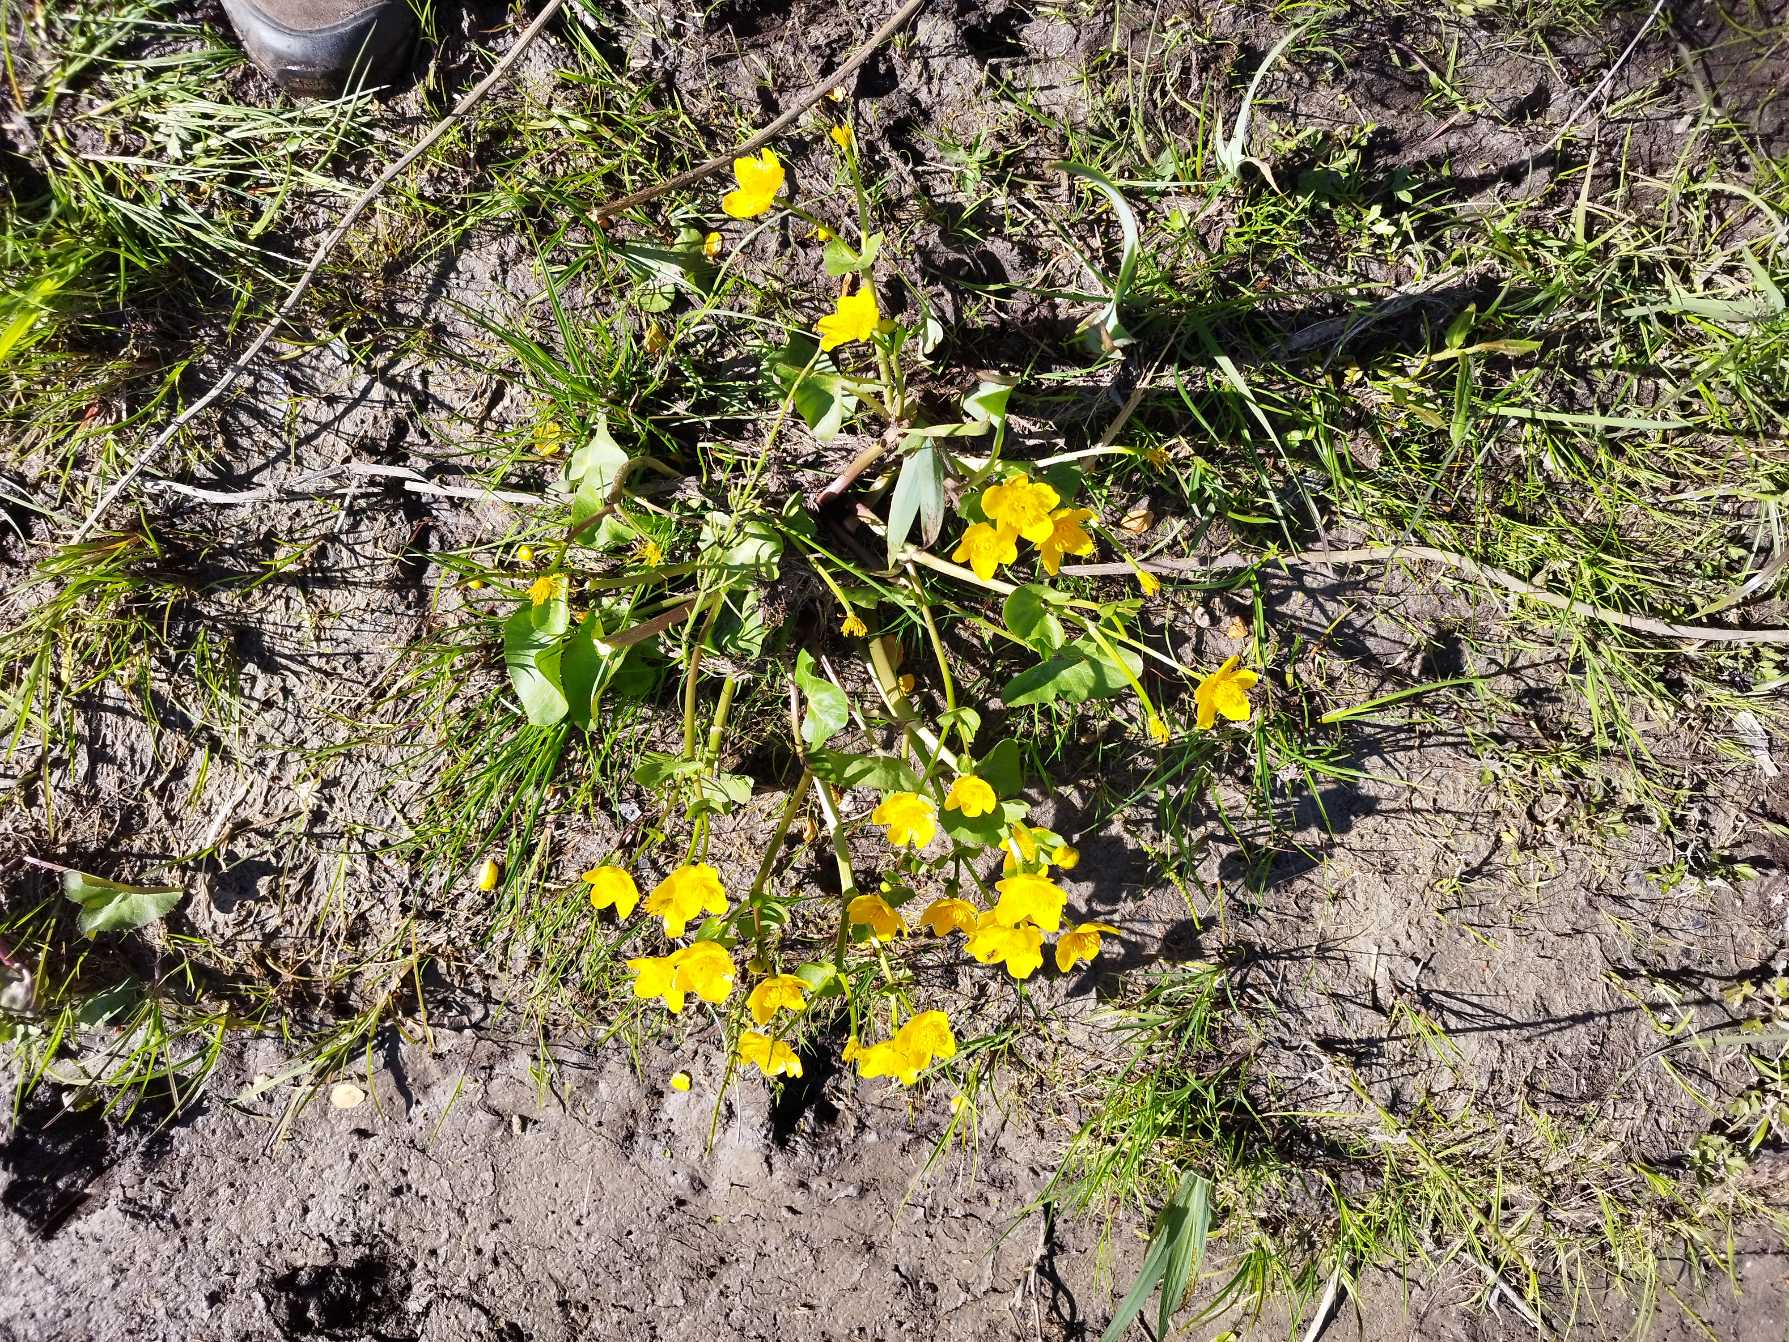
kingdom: Plantae
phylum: Tracheophyta
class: Magnoliopsida
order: Ranunculales
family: Ranunculaceae
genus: Caltha
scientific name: Caltha palustris
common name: Eng-kabbeleje
